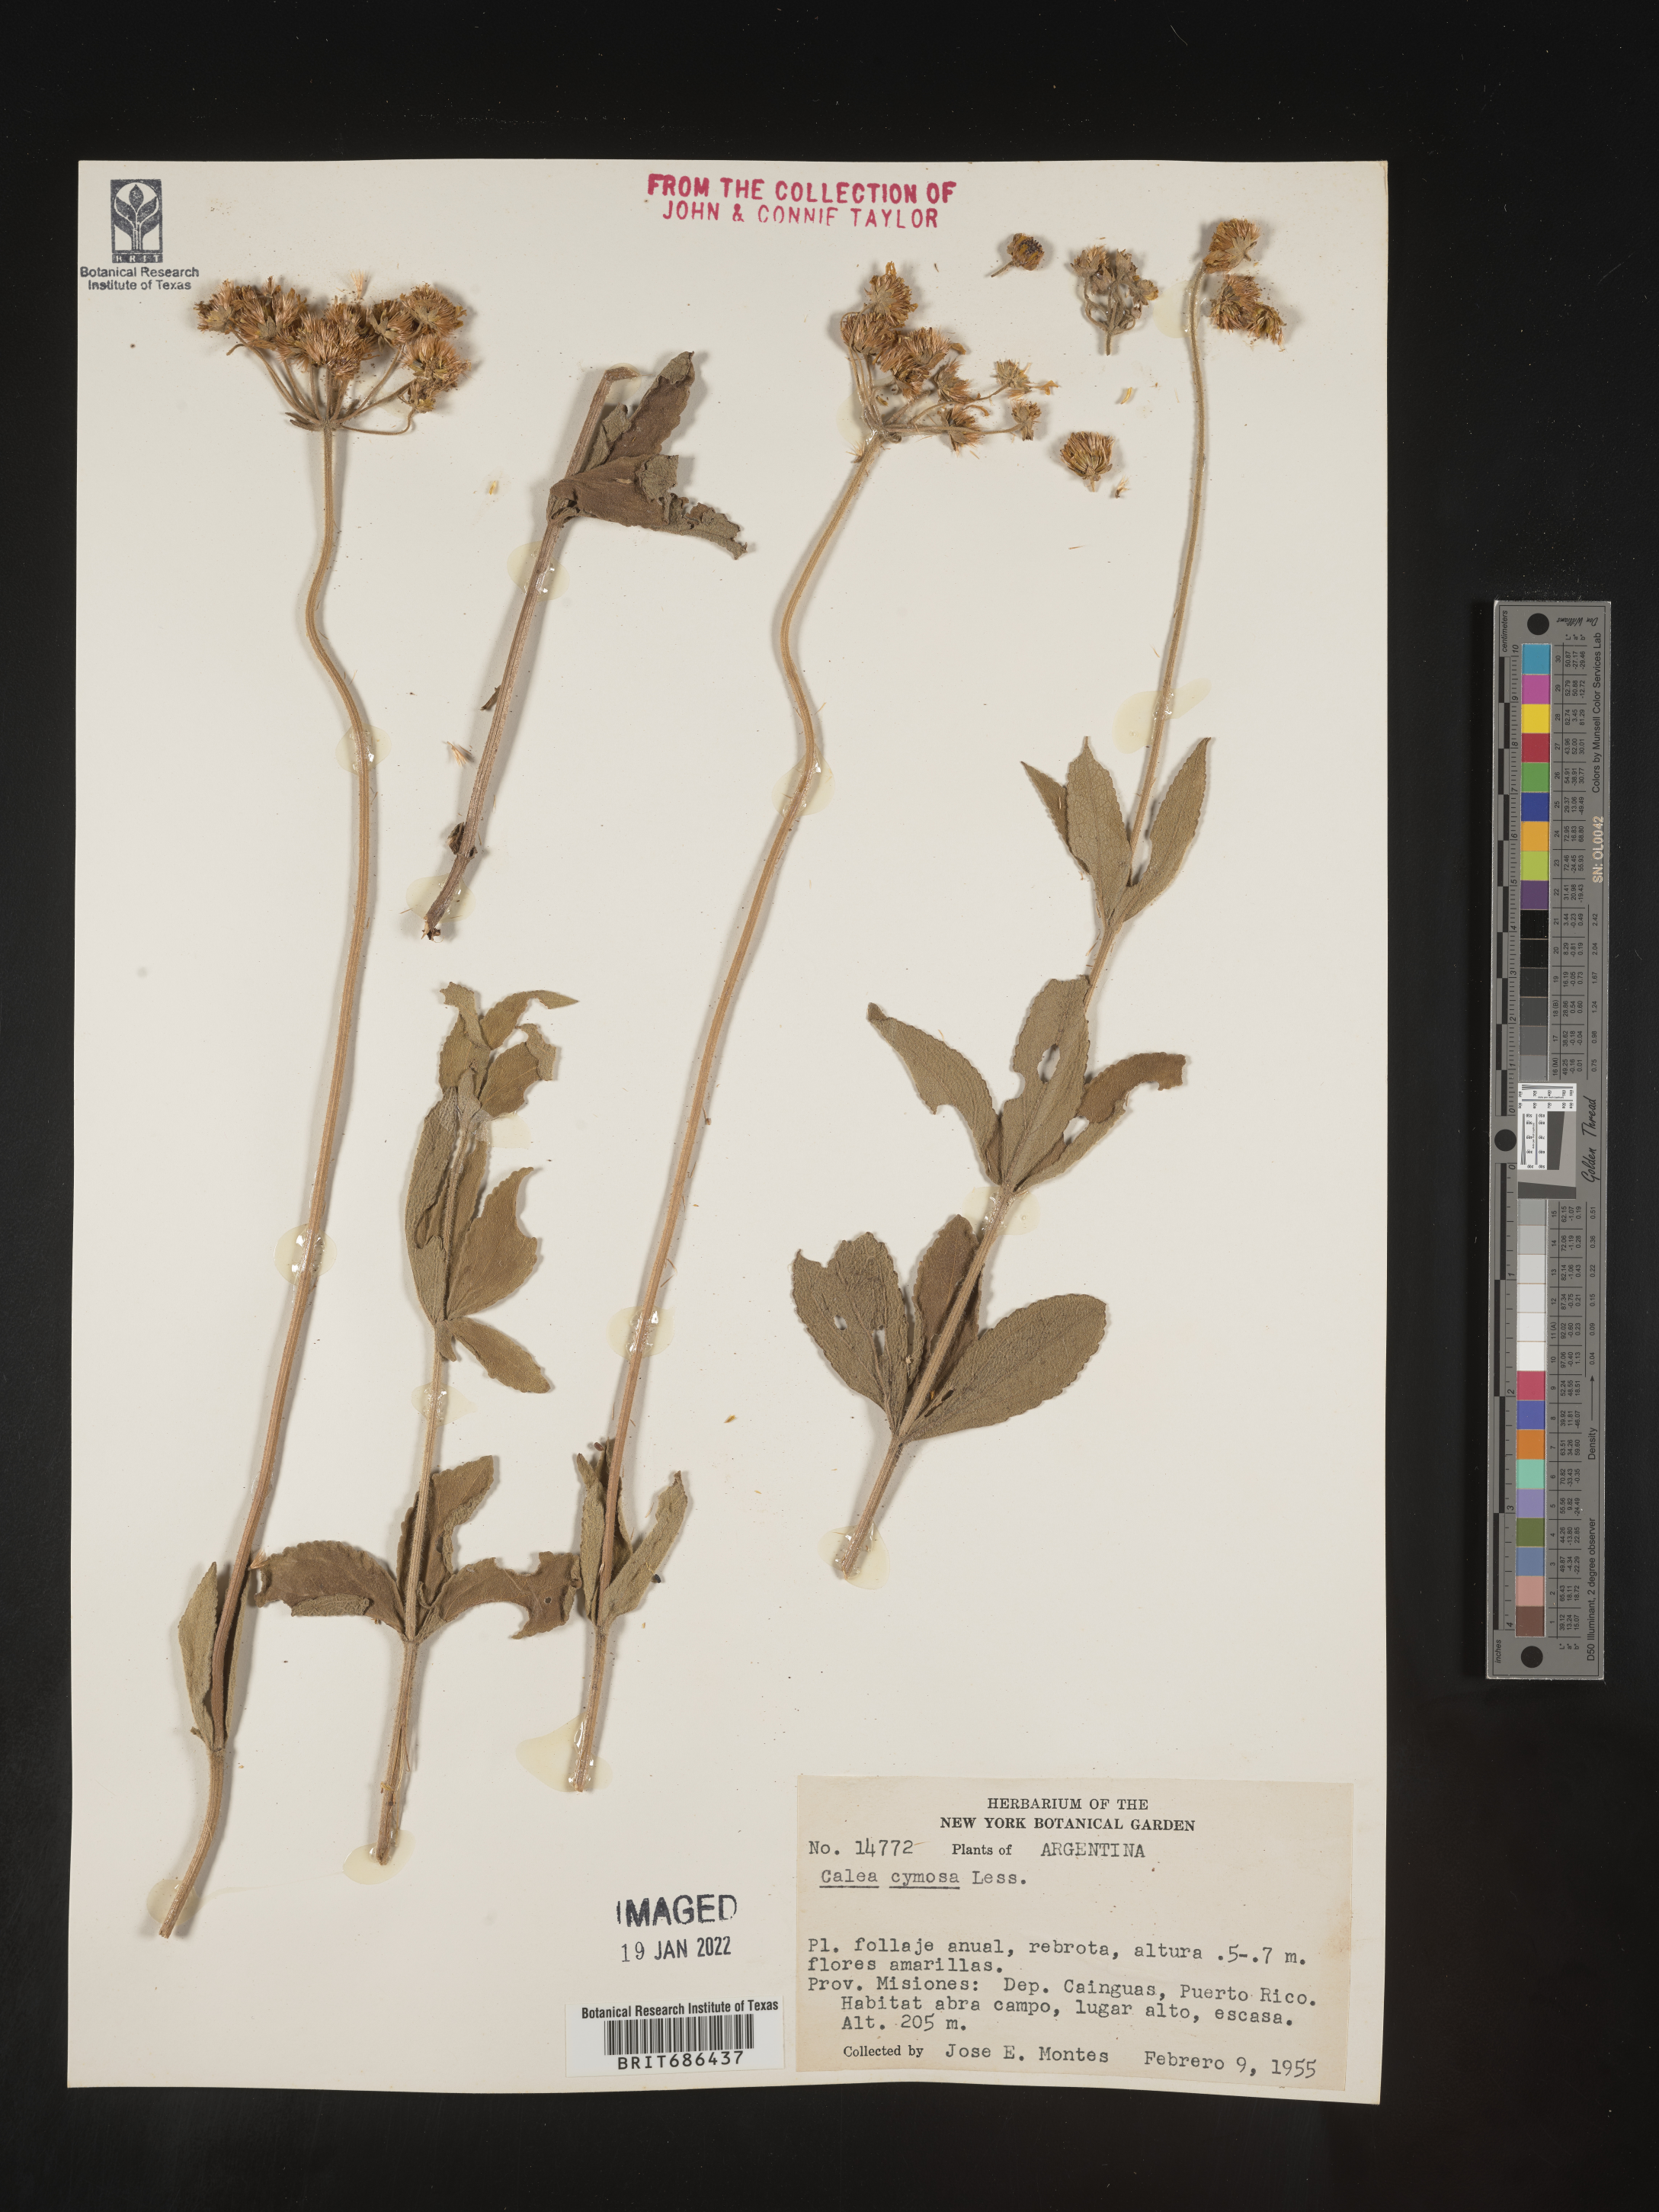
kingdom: Plantae
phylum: Tracheophyta
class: Magnoliopsida
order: Asterales
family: Asteraceae
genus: Calea
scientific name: Calea mediterranea
